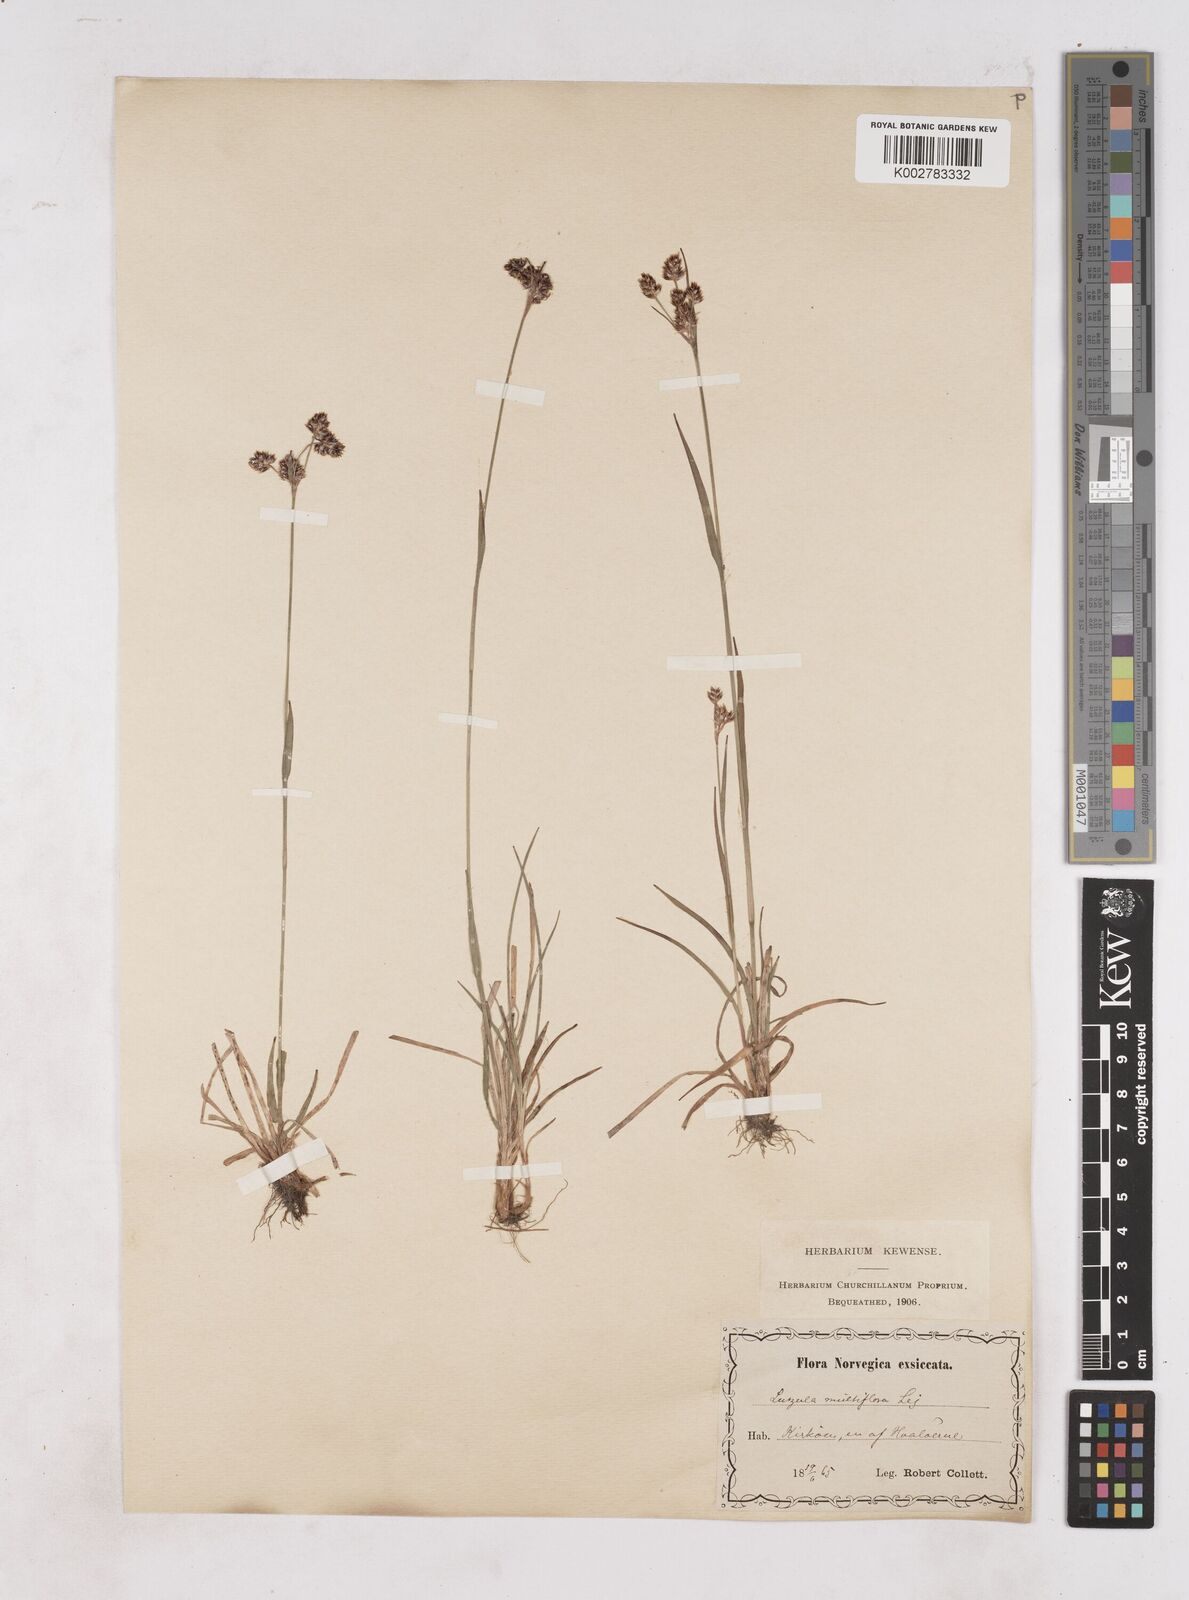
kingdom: Plantae
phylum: Tracheophyta
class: Liliopsida
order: Poales
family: Juncaceae
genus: Luzula
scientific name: Luzula multiflora
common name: Heath wood-rush
